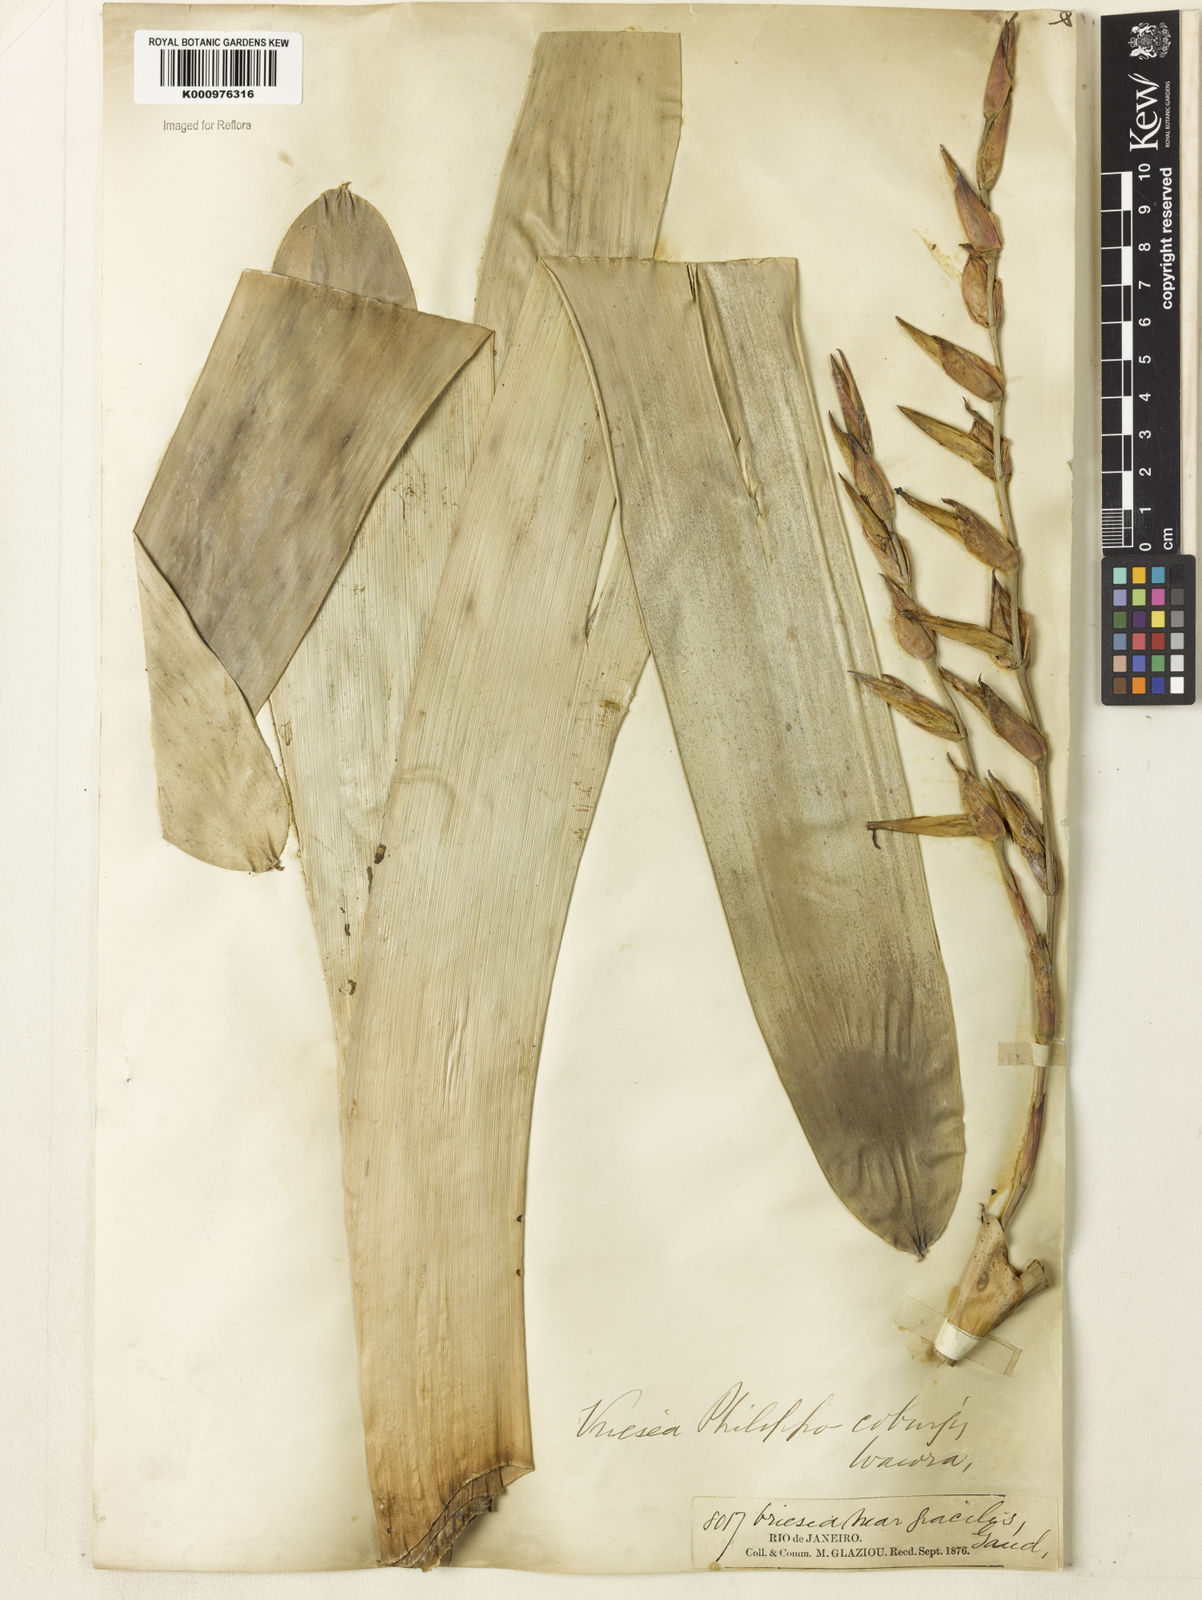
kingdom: Plantae
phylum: Tracheophyta
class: Liliopsida
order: Poales
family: Bromeliaceae
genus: Vriesea
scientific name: Vriesea philippocoburgi
